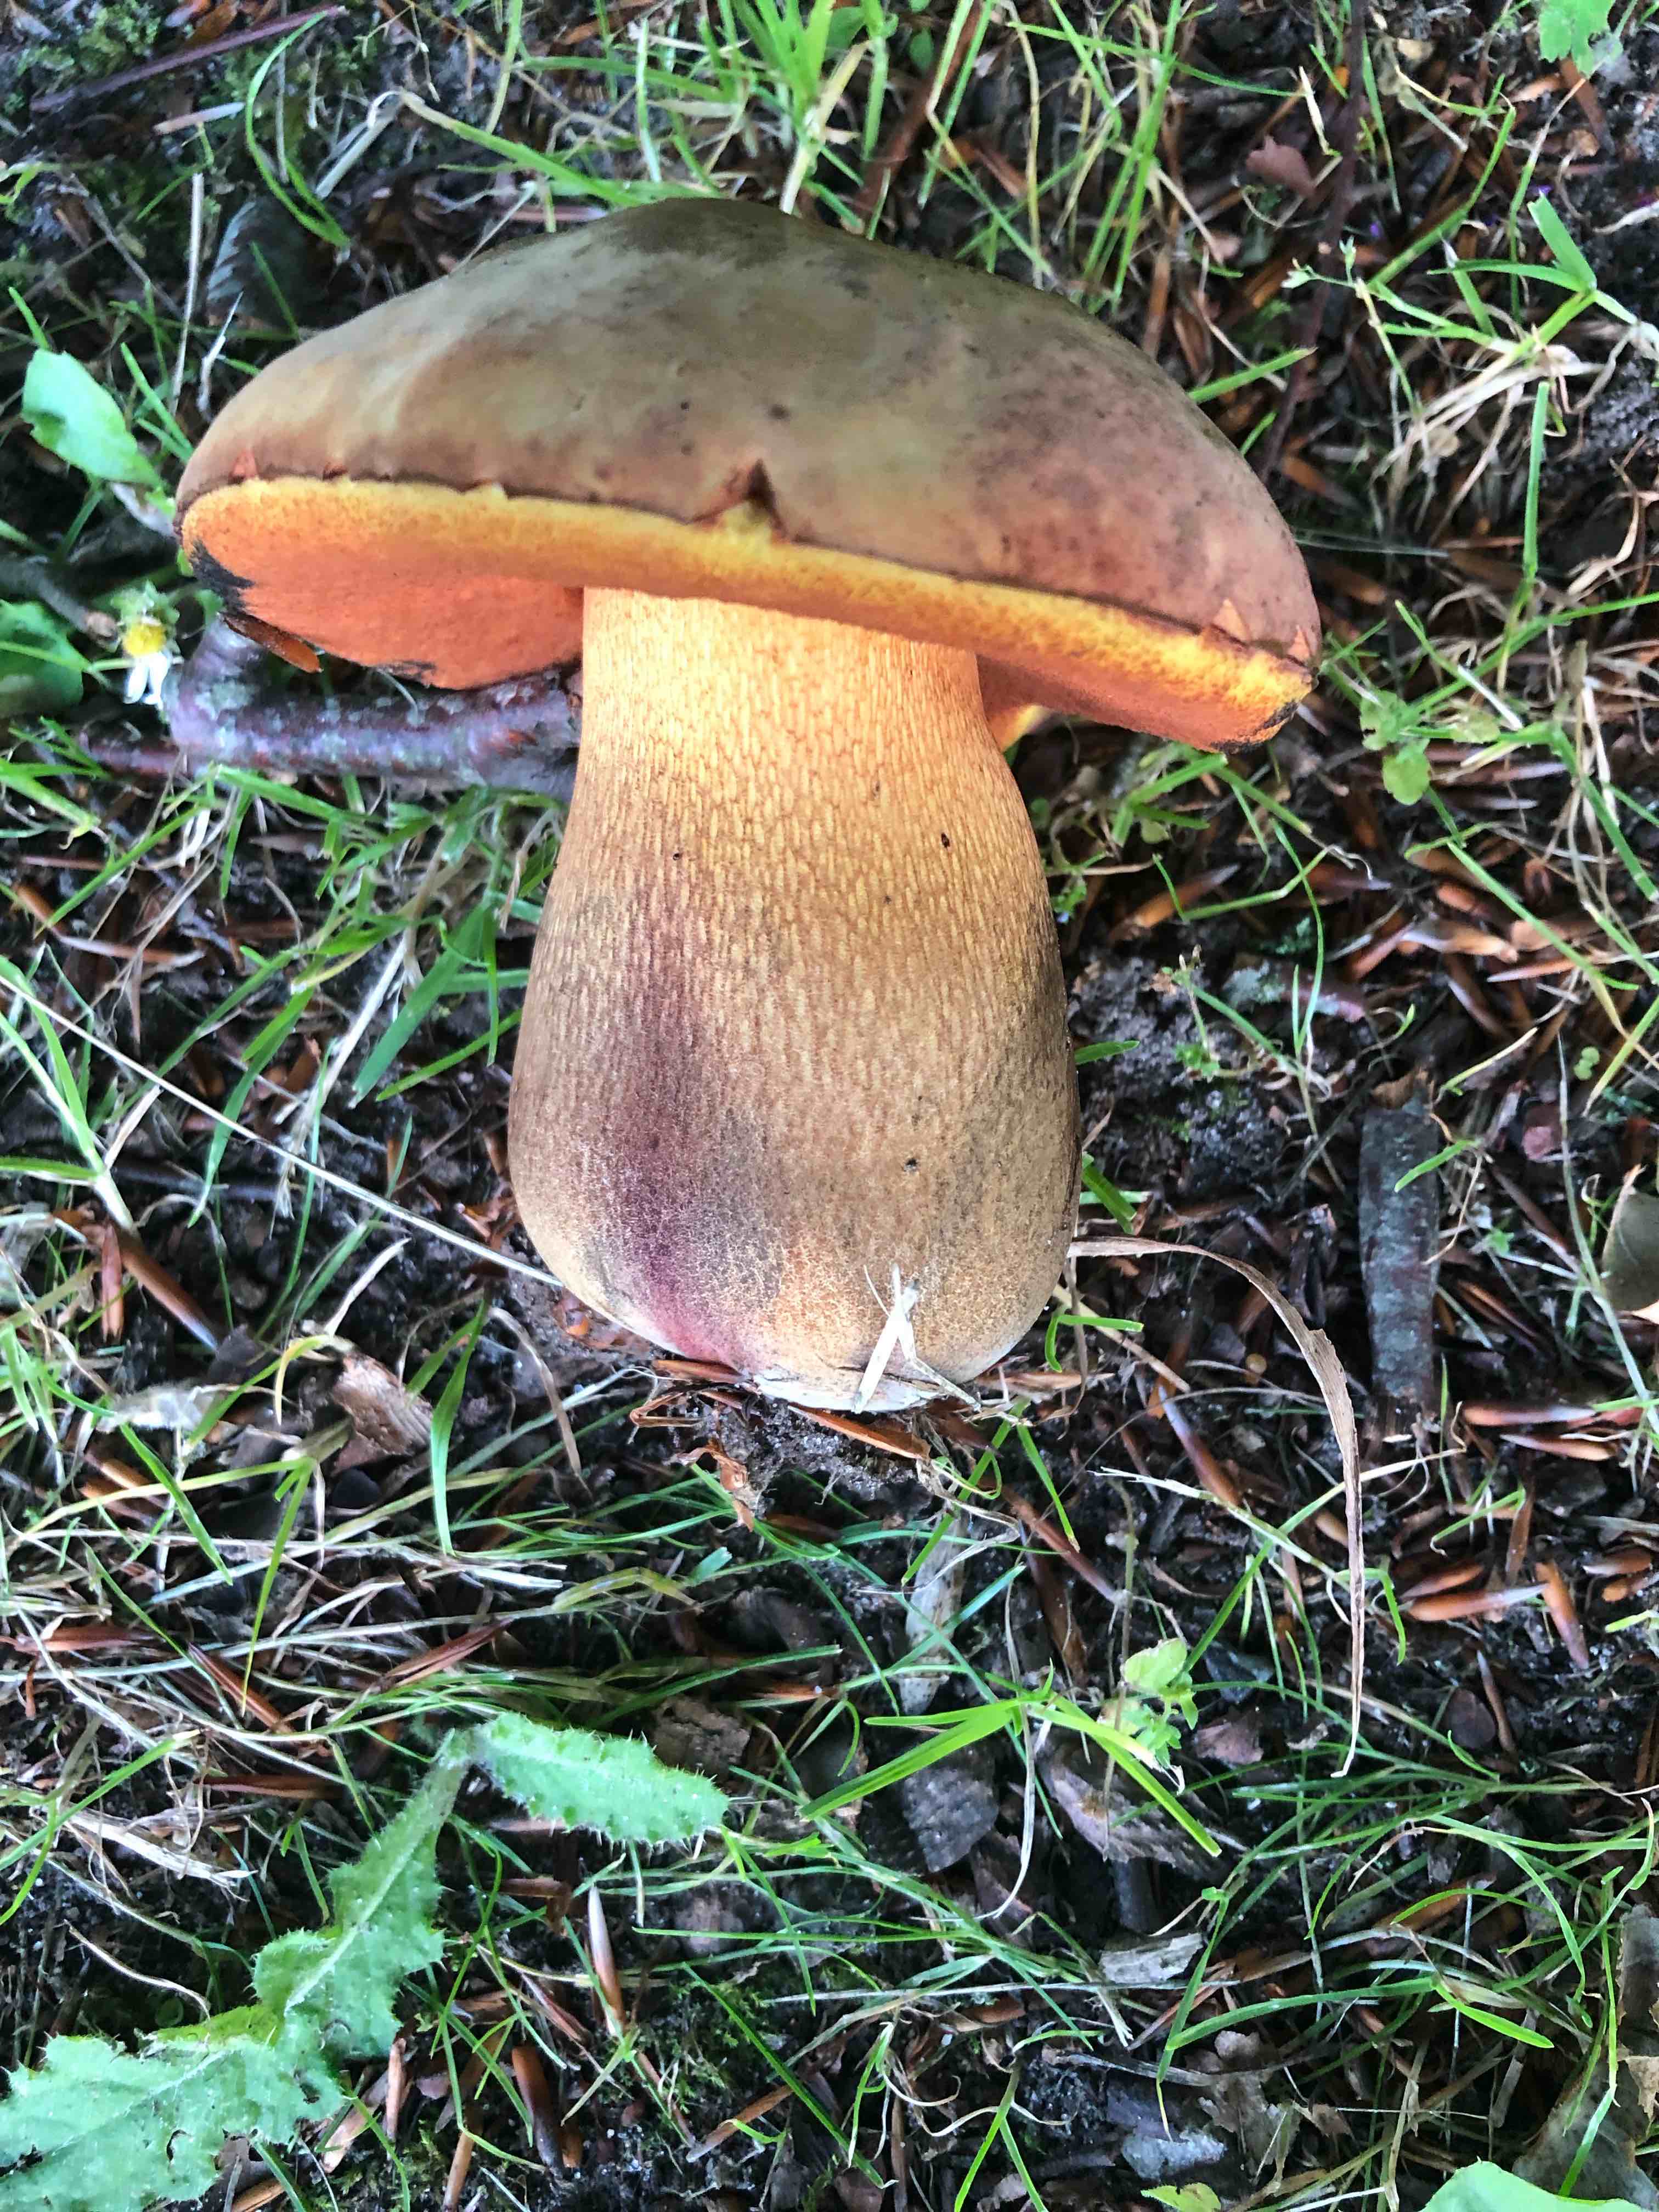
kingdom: Fungi
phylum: Basidiomycota
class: Agaricomycetes
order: Boletales
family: Boletaceae
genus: Suillellus
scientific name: Suillellus luridus
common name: netstokket indigorørhat
